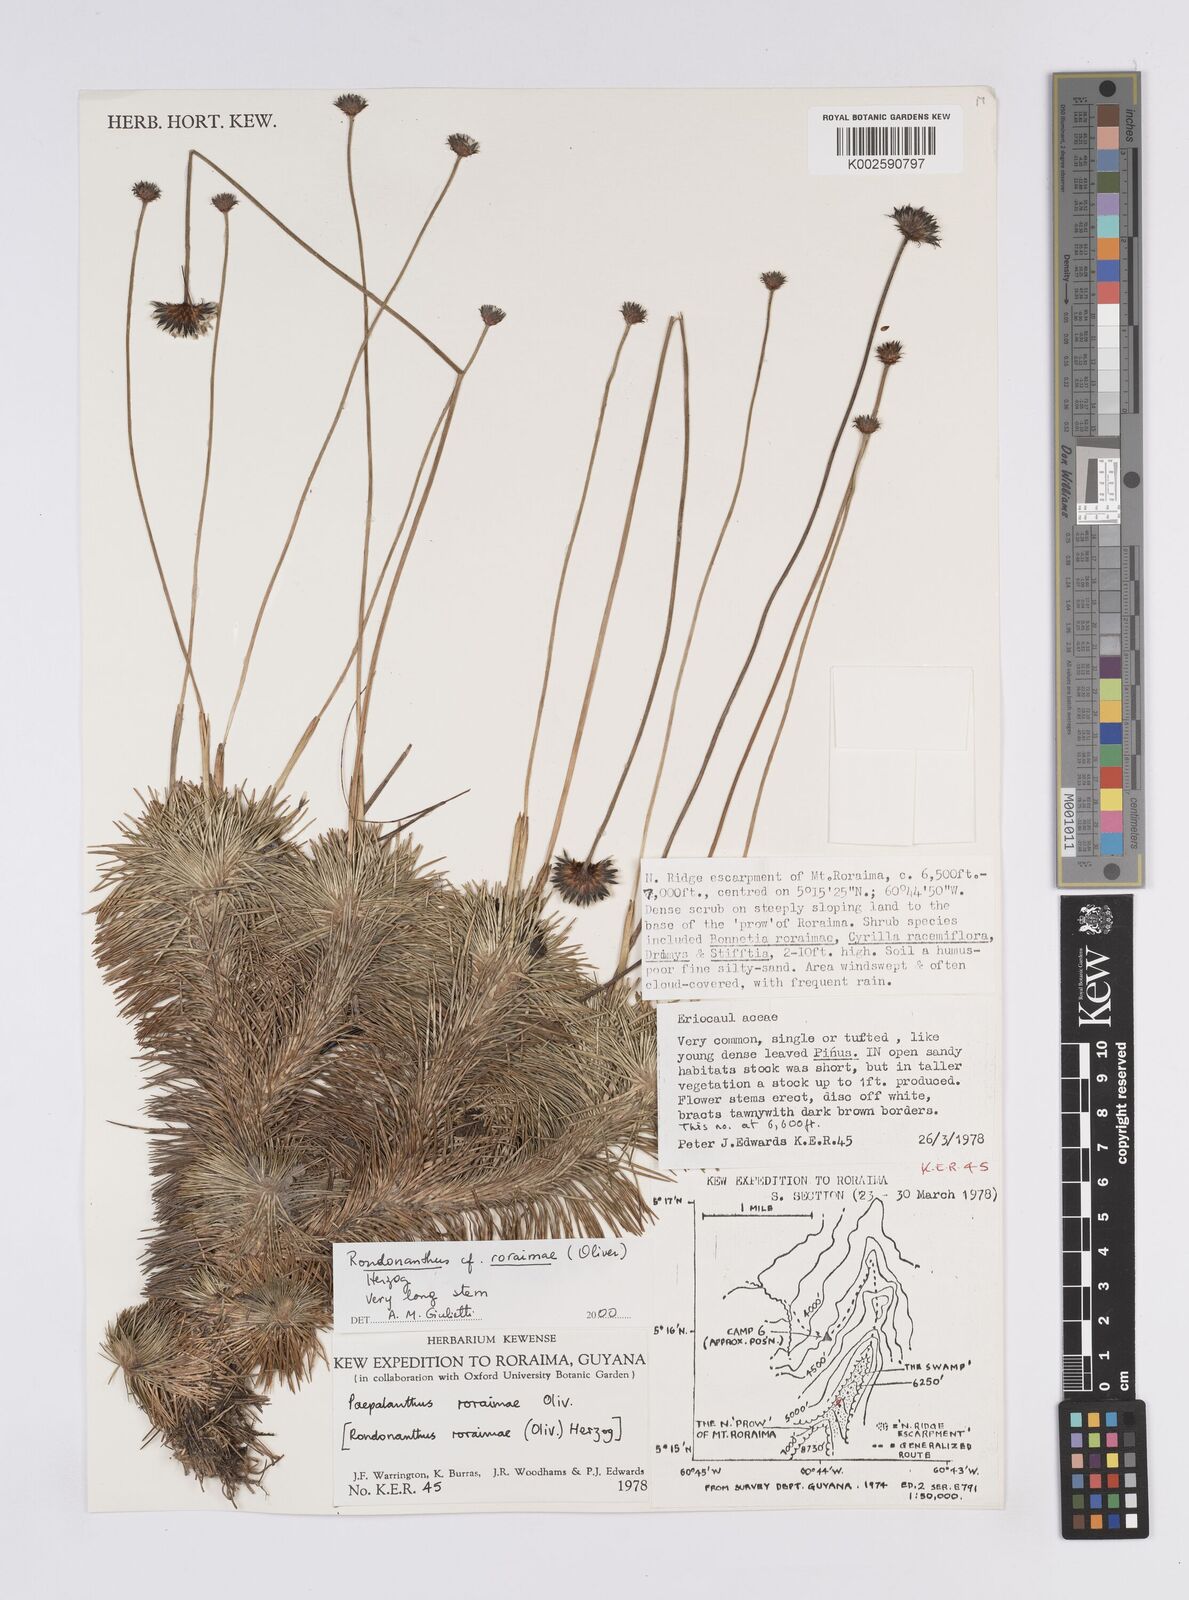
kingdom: Plantae
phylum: Tracheophyta
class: Liliopsida
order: Poales
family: Eriocaulaceae
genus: Rondonanthus
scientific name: Rondonanthus roraimae
